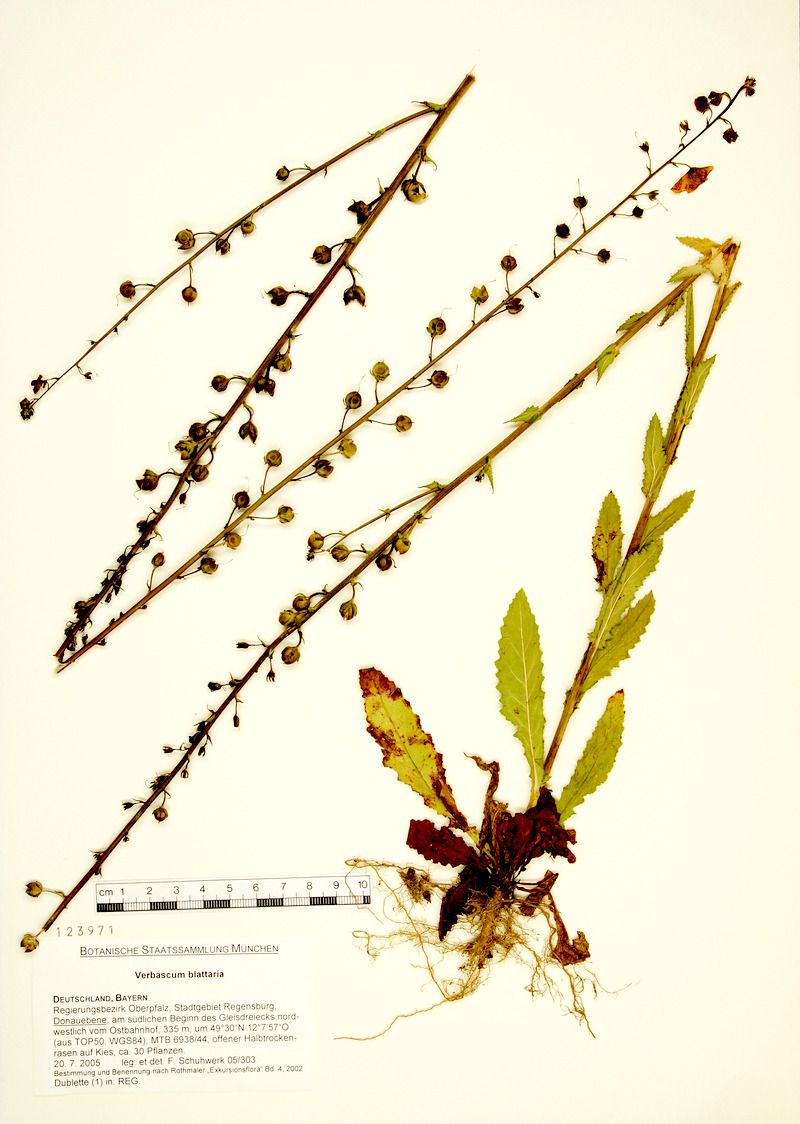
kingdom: Plantae
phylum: Tracheophyta
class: Magnoliopsida
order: Lamiales
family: Scrophulariaceae
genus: Verbascum
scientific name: Verbascum blattaria
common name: Moth mullein
